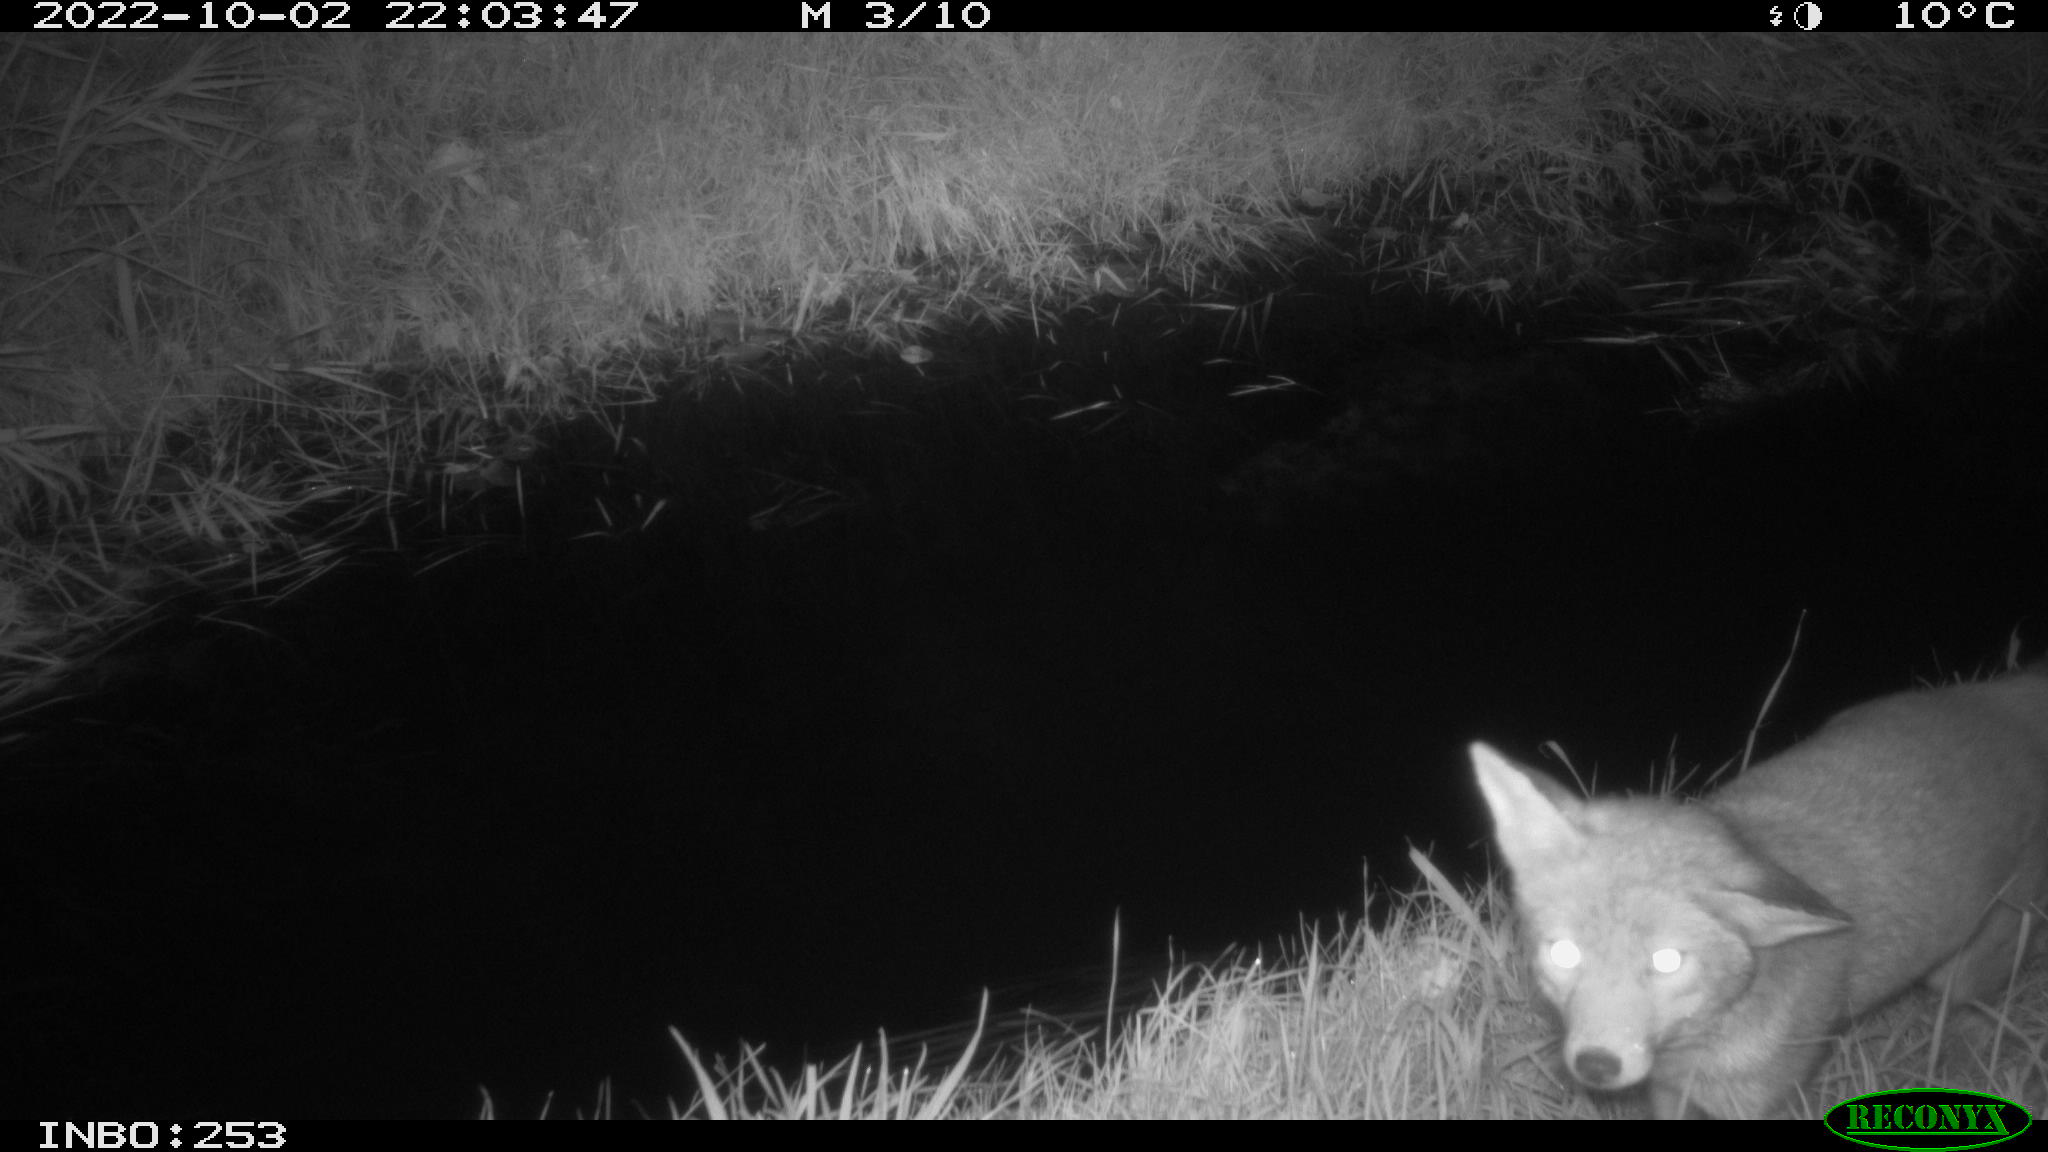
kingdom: Animalia
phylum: Chordata
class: Mammalia
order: Carnivora
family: Canidae
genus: Vulpes
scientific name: Vulpes vulpes
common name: Red fox
